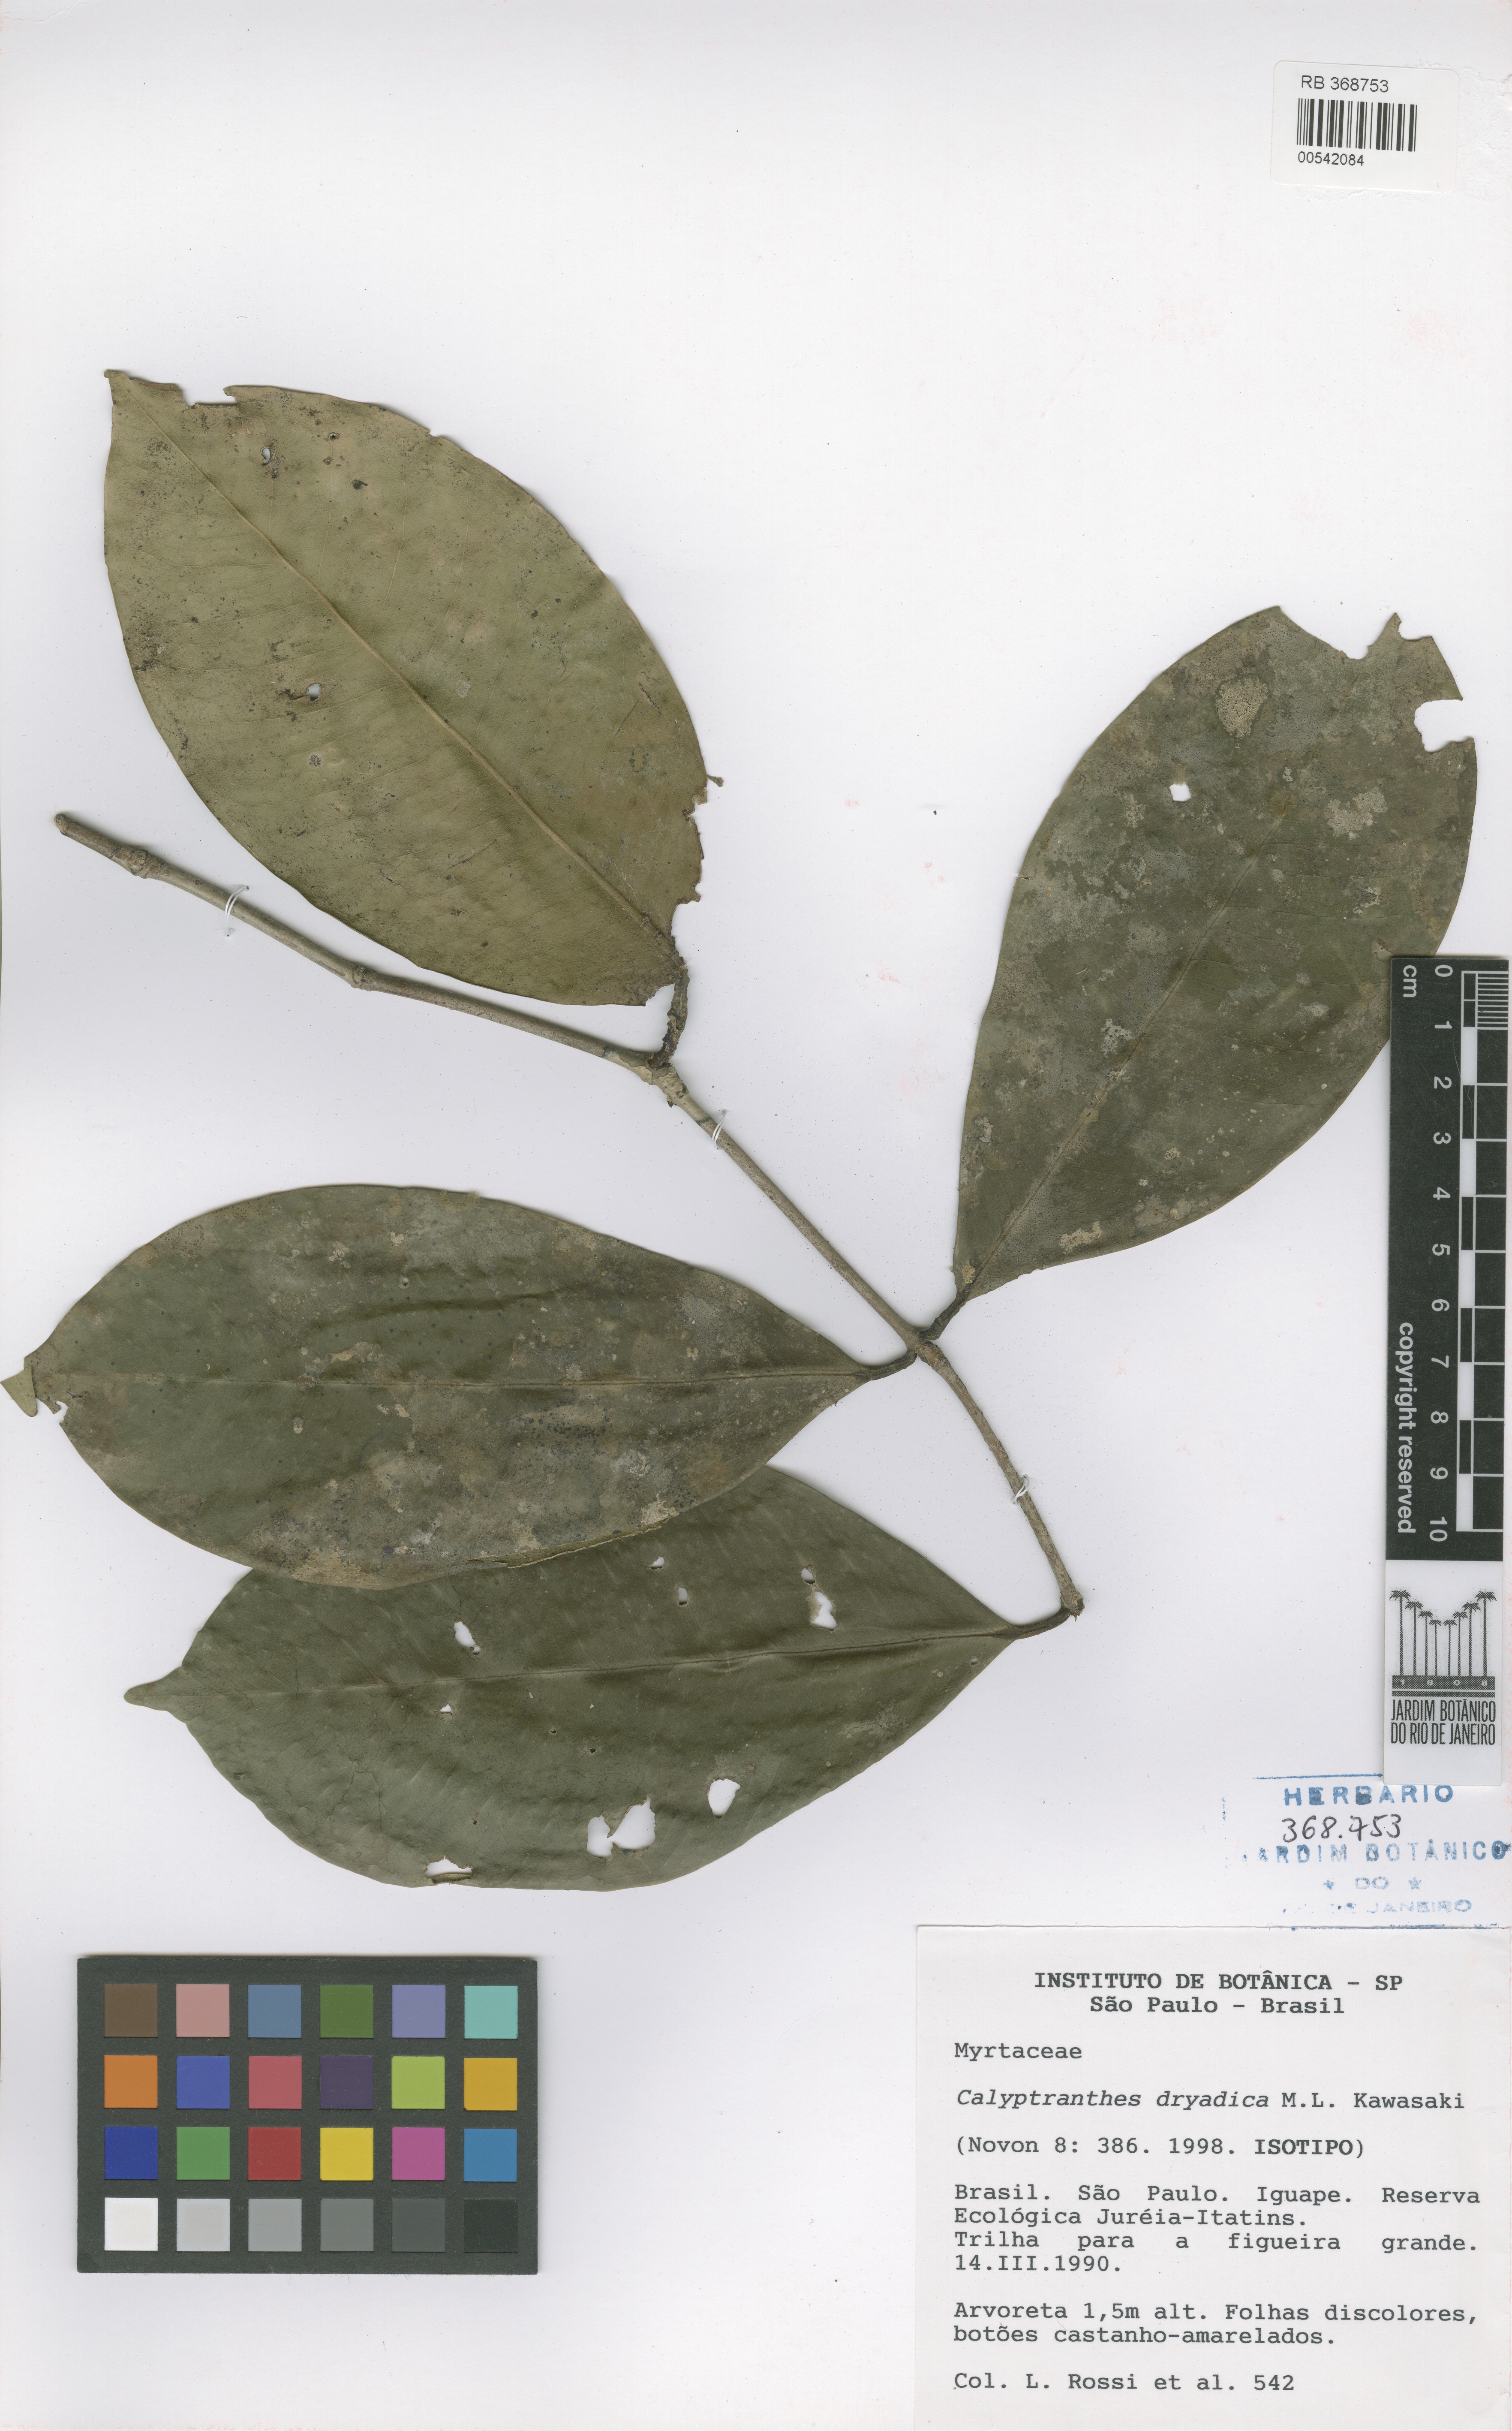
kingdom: Plantae
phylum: Tracheophyta
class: Magnoliopsida
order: Myrtales
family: Myrtaceae
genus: Myrcia
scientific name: Myrcia dryadica
